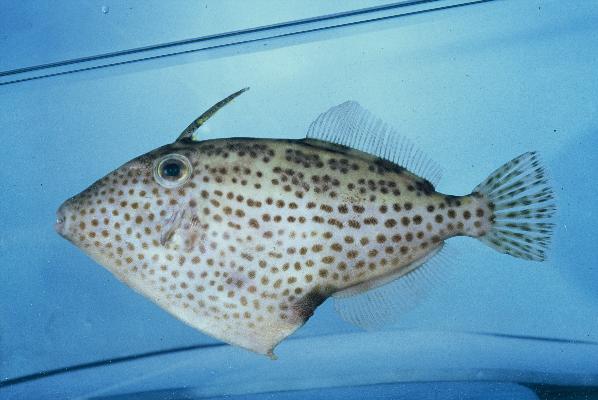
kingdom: Animalia
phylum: Chordata
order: Tetraodontiformes
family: Monacanthidae
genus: Thamnaconus
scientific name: Thamnaconus fajardoi
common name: Spotted filefish
